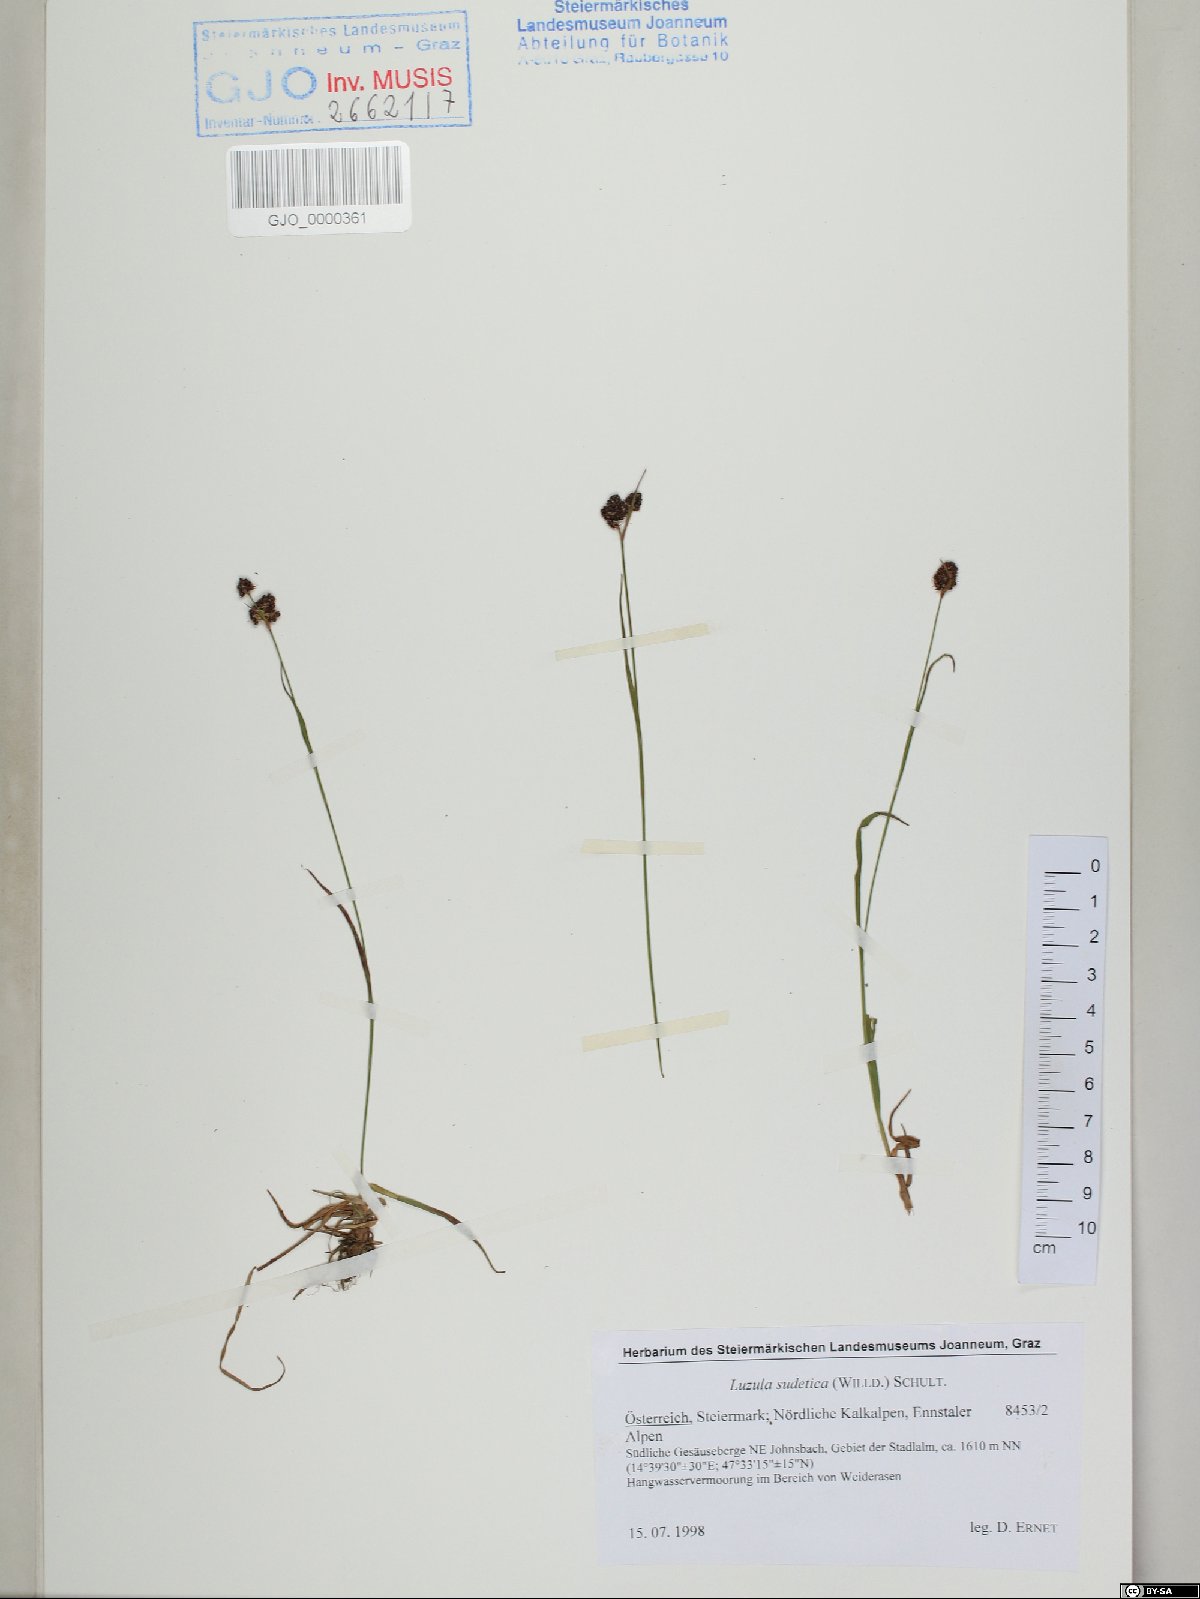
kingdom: Plantae
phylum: Tracheophyta
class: Liliopsida
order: Poales
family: Juncaceae
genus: Luzula
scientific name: Luzula sudetica
